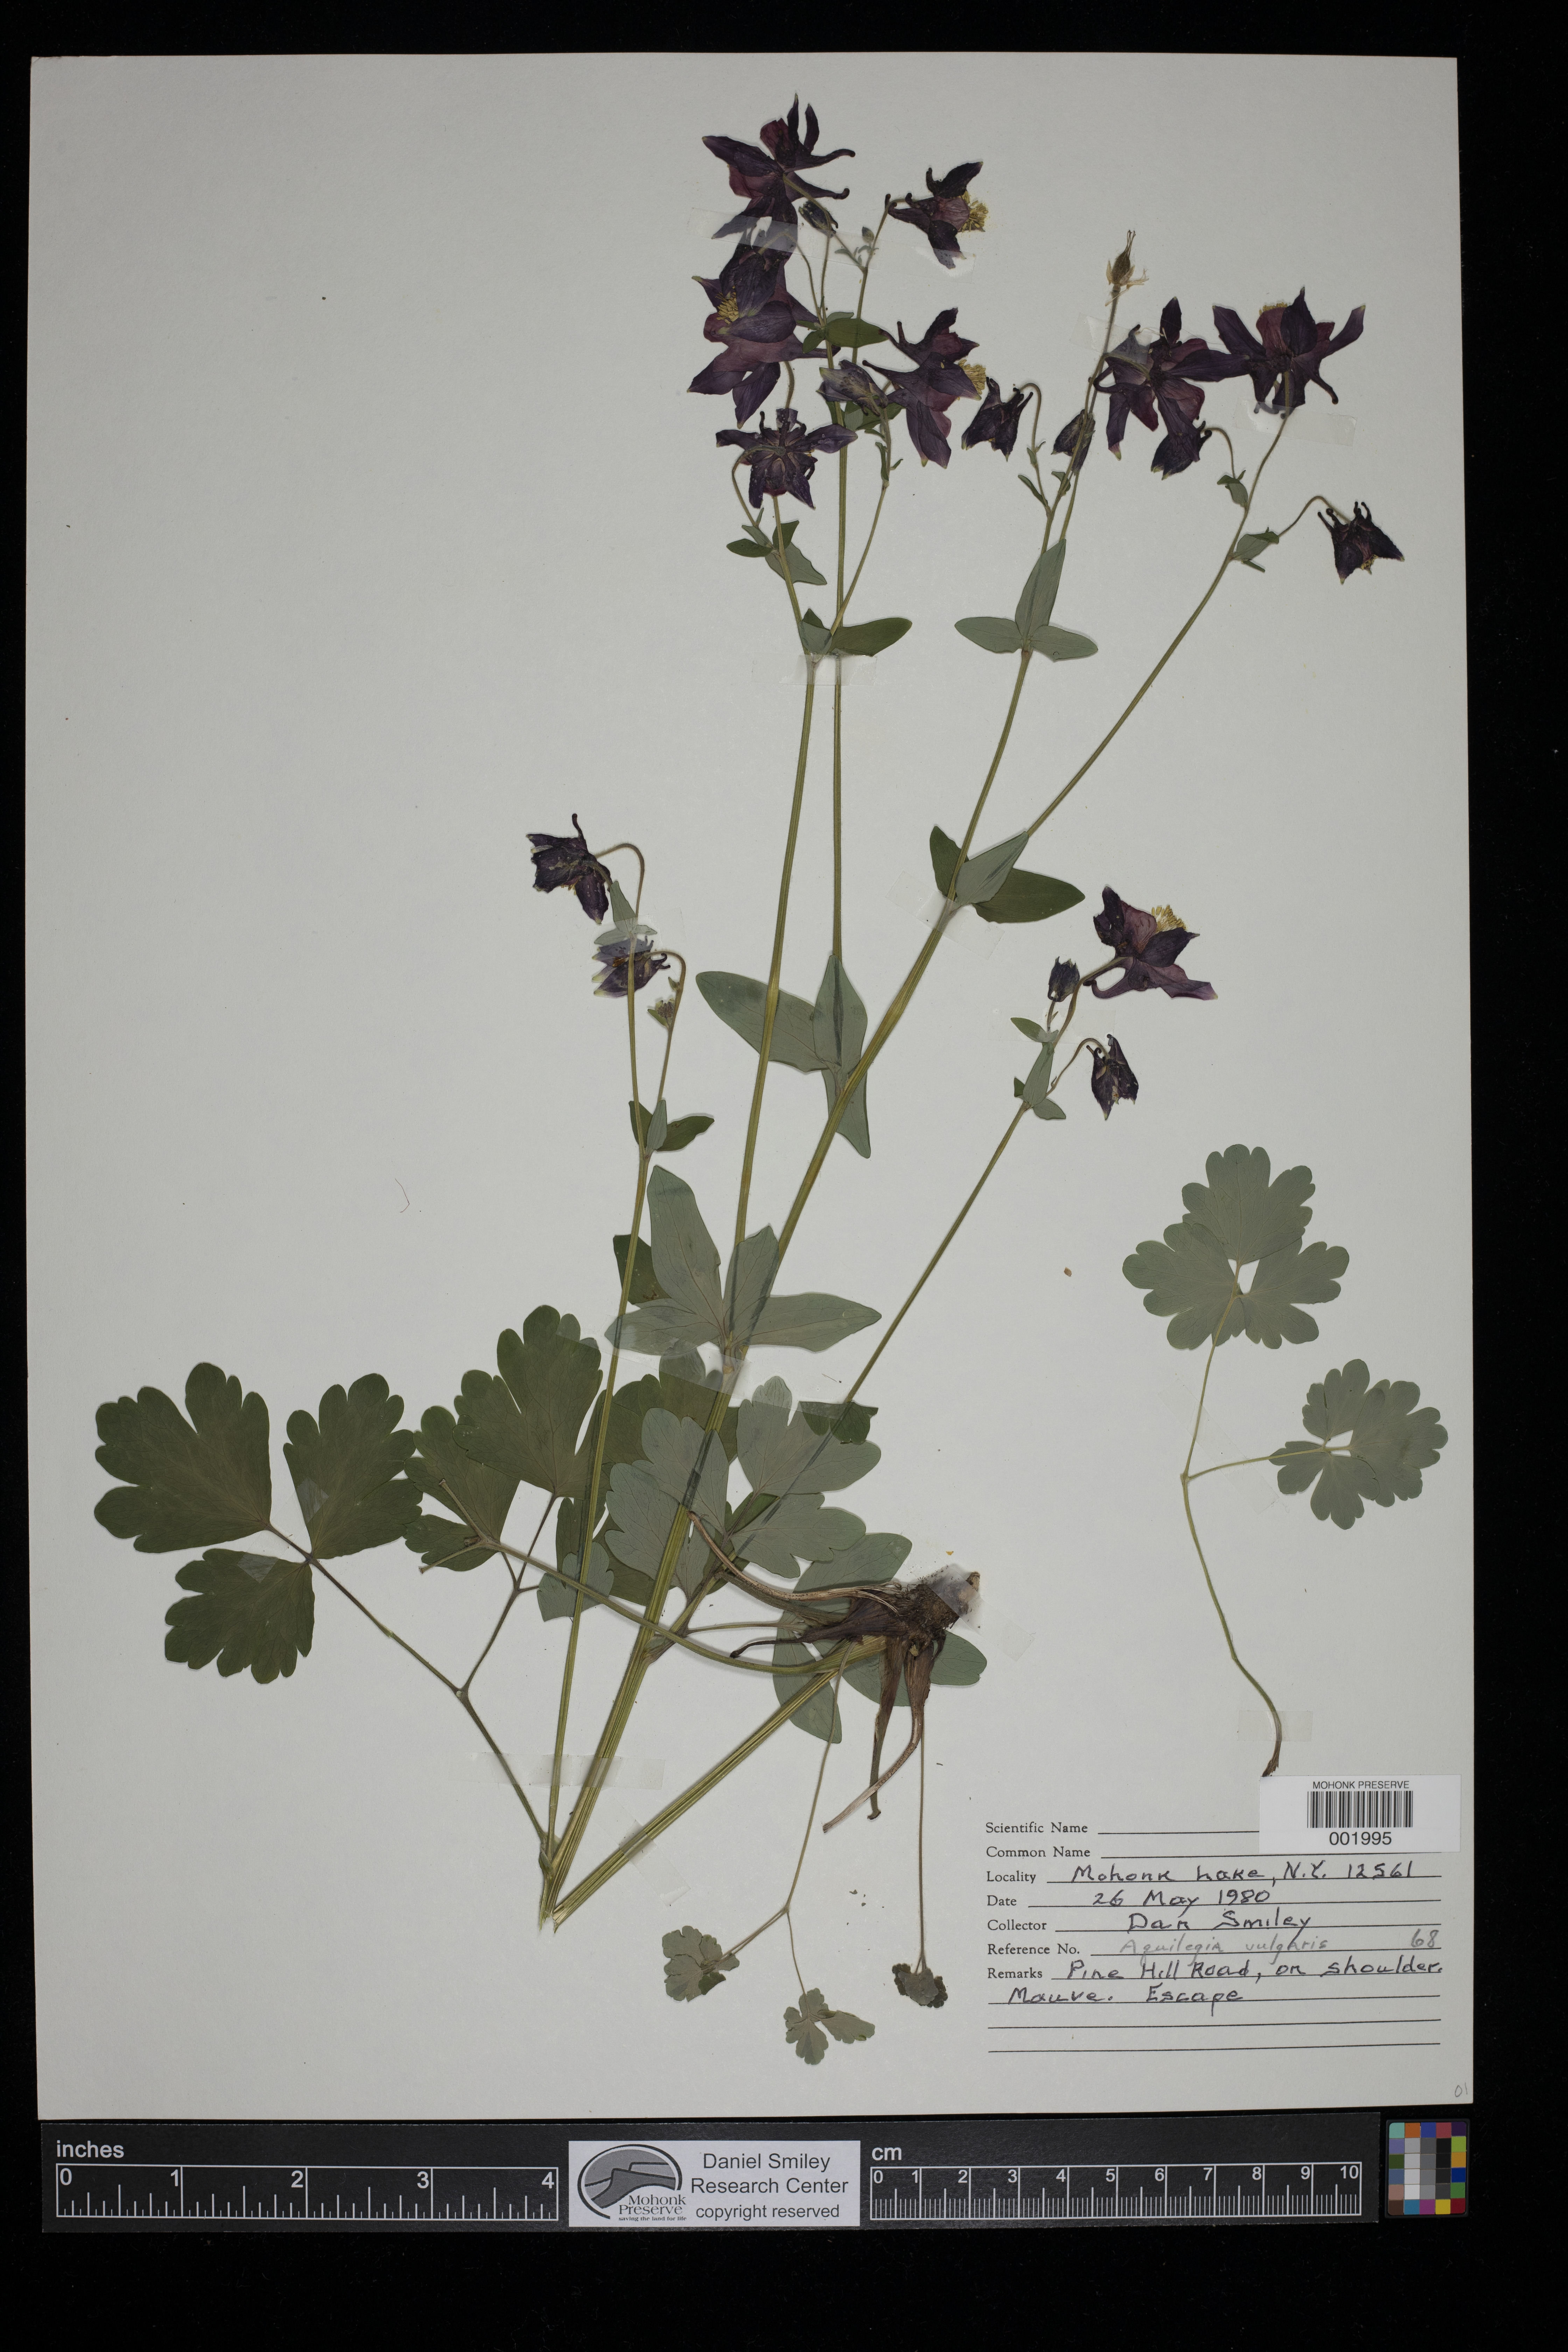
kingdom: Plantae
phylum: Tracheophyta
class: Magnoliopsida
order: Ranunculales
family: Ranunculaceae
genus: Aquilegia
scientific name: Aquilegia vulgaris
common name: Columbine
